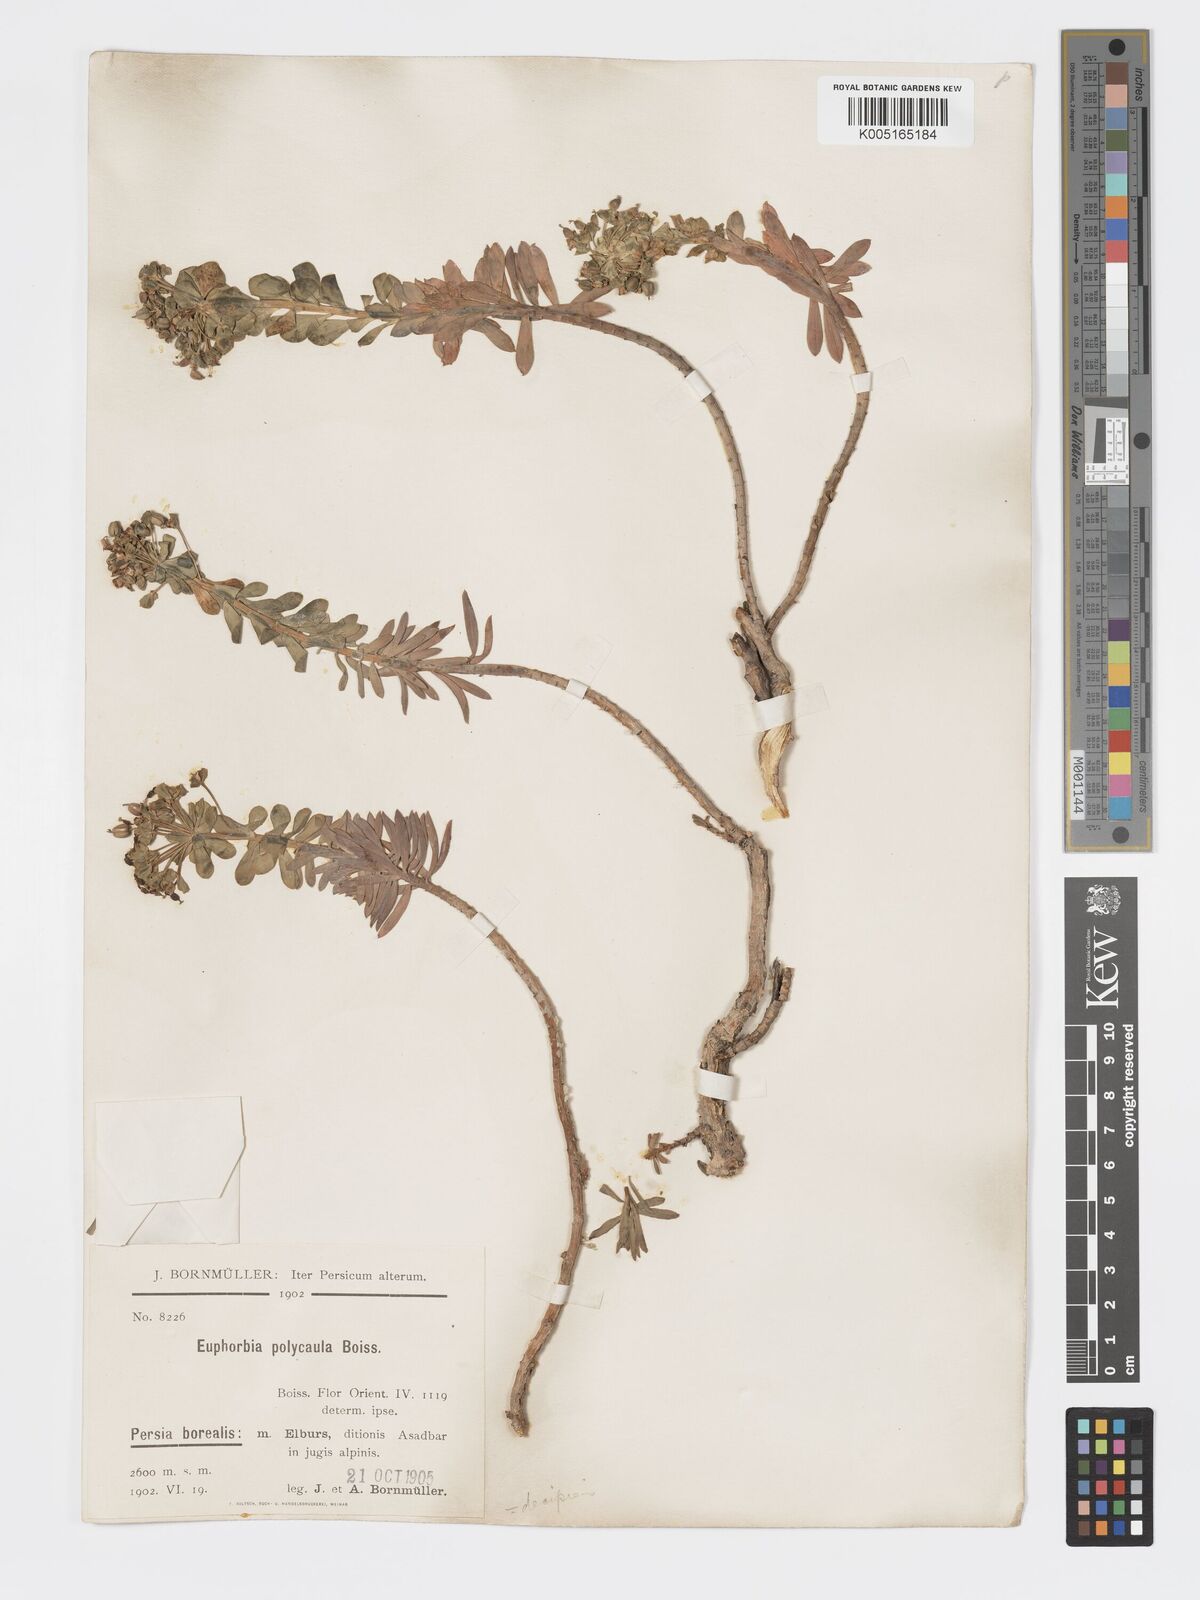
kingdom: Plantae
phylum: Tracheophyta
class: Magnoliopsida
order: Malpighiales
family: Euphorbiaceae
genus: Euphorbia
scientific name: Euphorbia polycaulis
